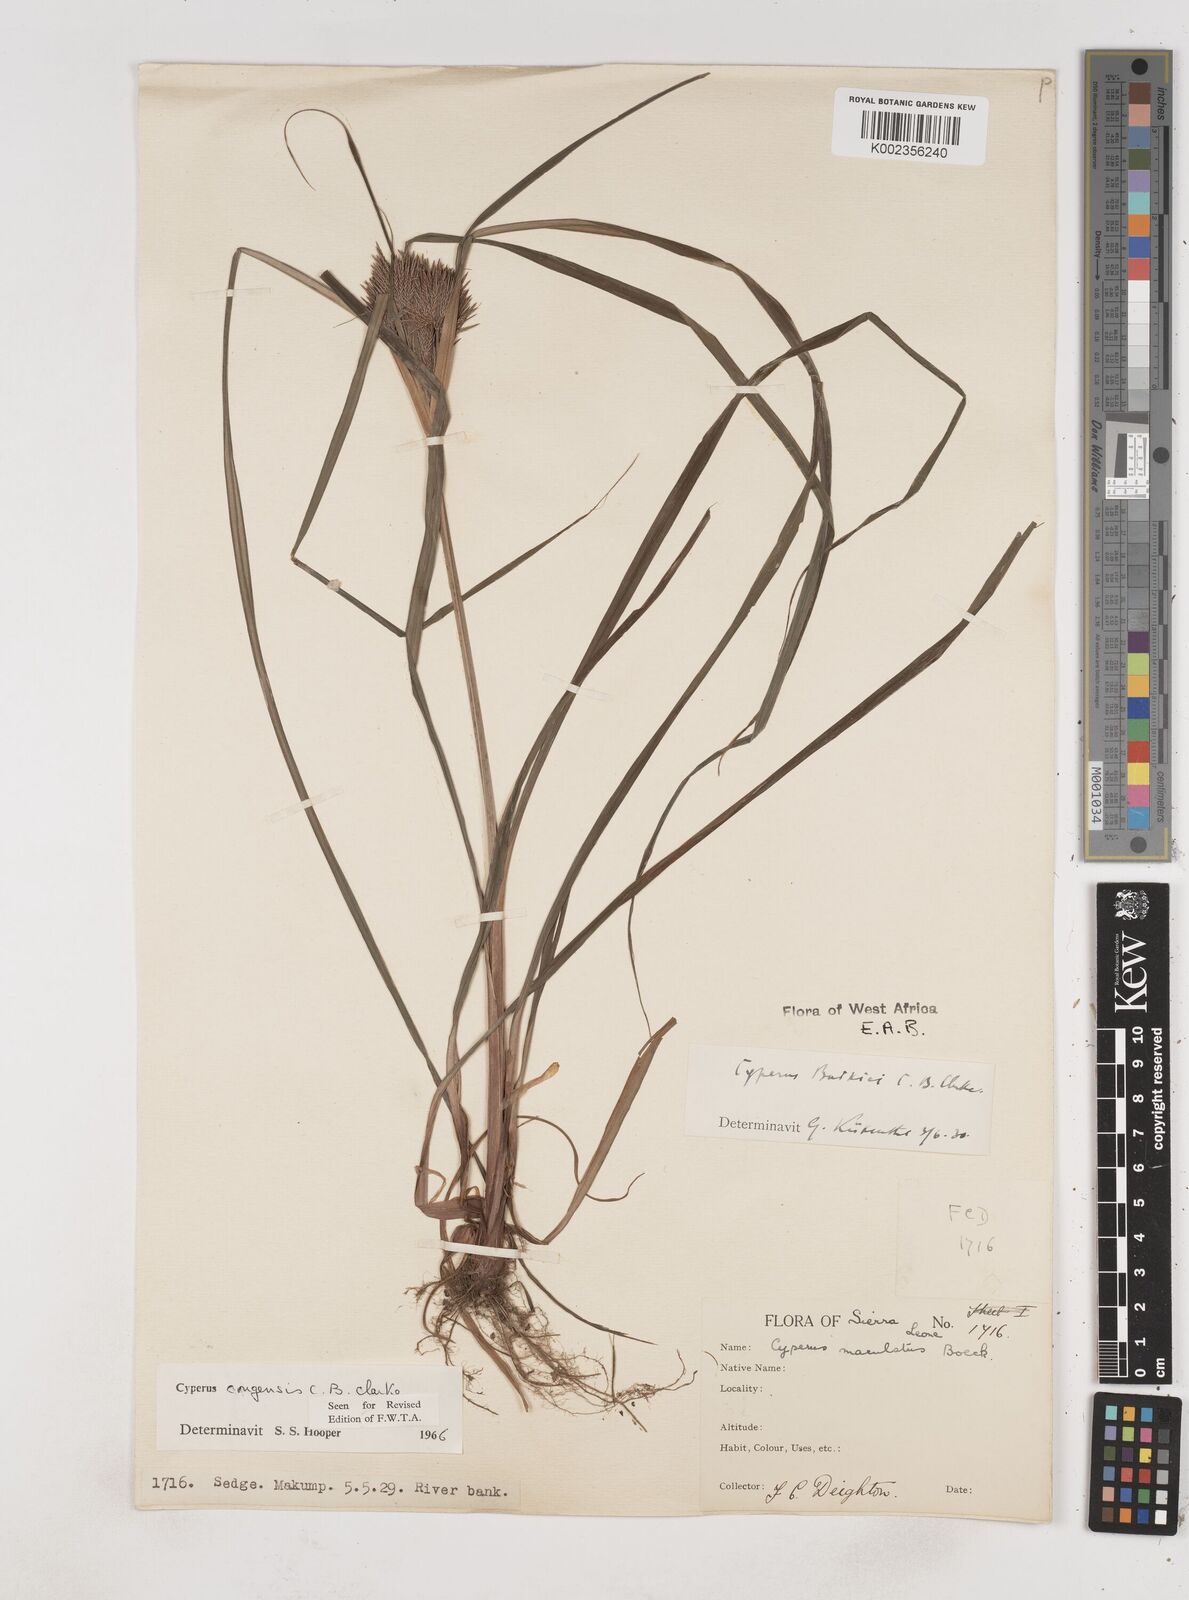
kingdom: Plantae
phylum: Tracheophyta
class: Liliopsida
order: Poales
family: Cyperaceae
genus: Cyperus
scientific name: Cyperus congensis
